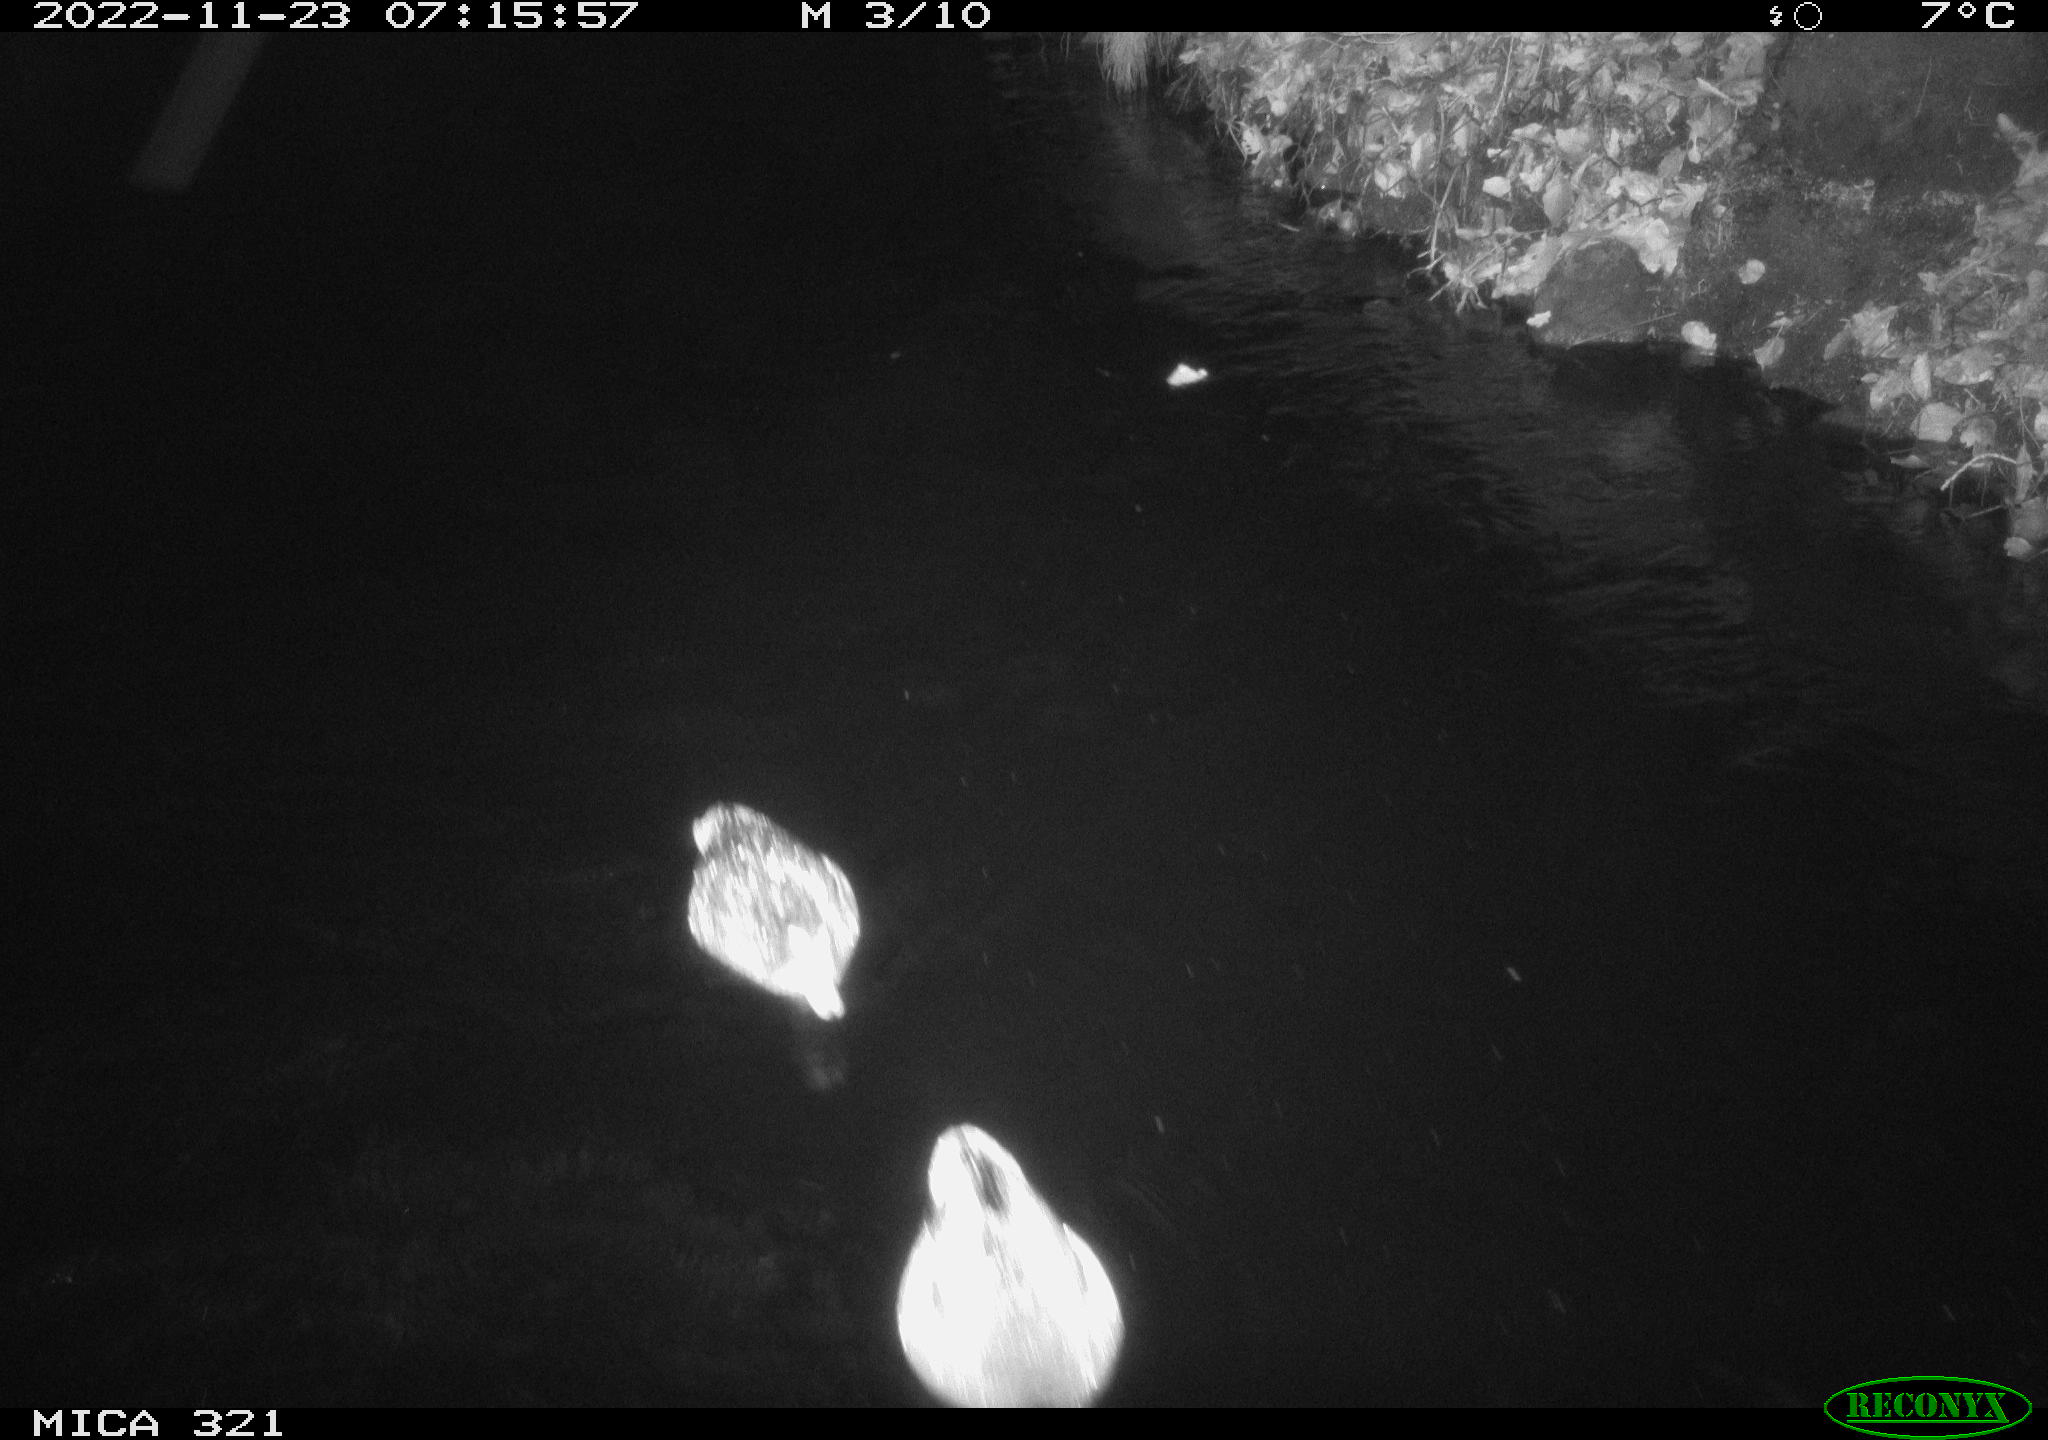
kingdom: Animalia
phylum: Chordata
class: Mammalia
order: Rodentia
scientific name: Rodentia
